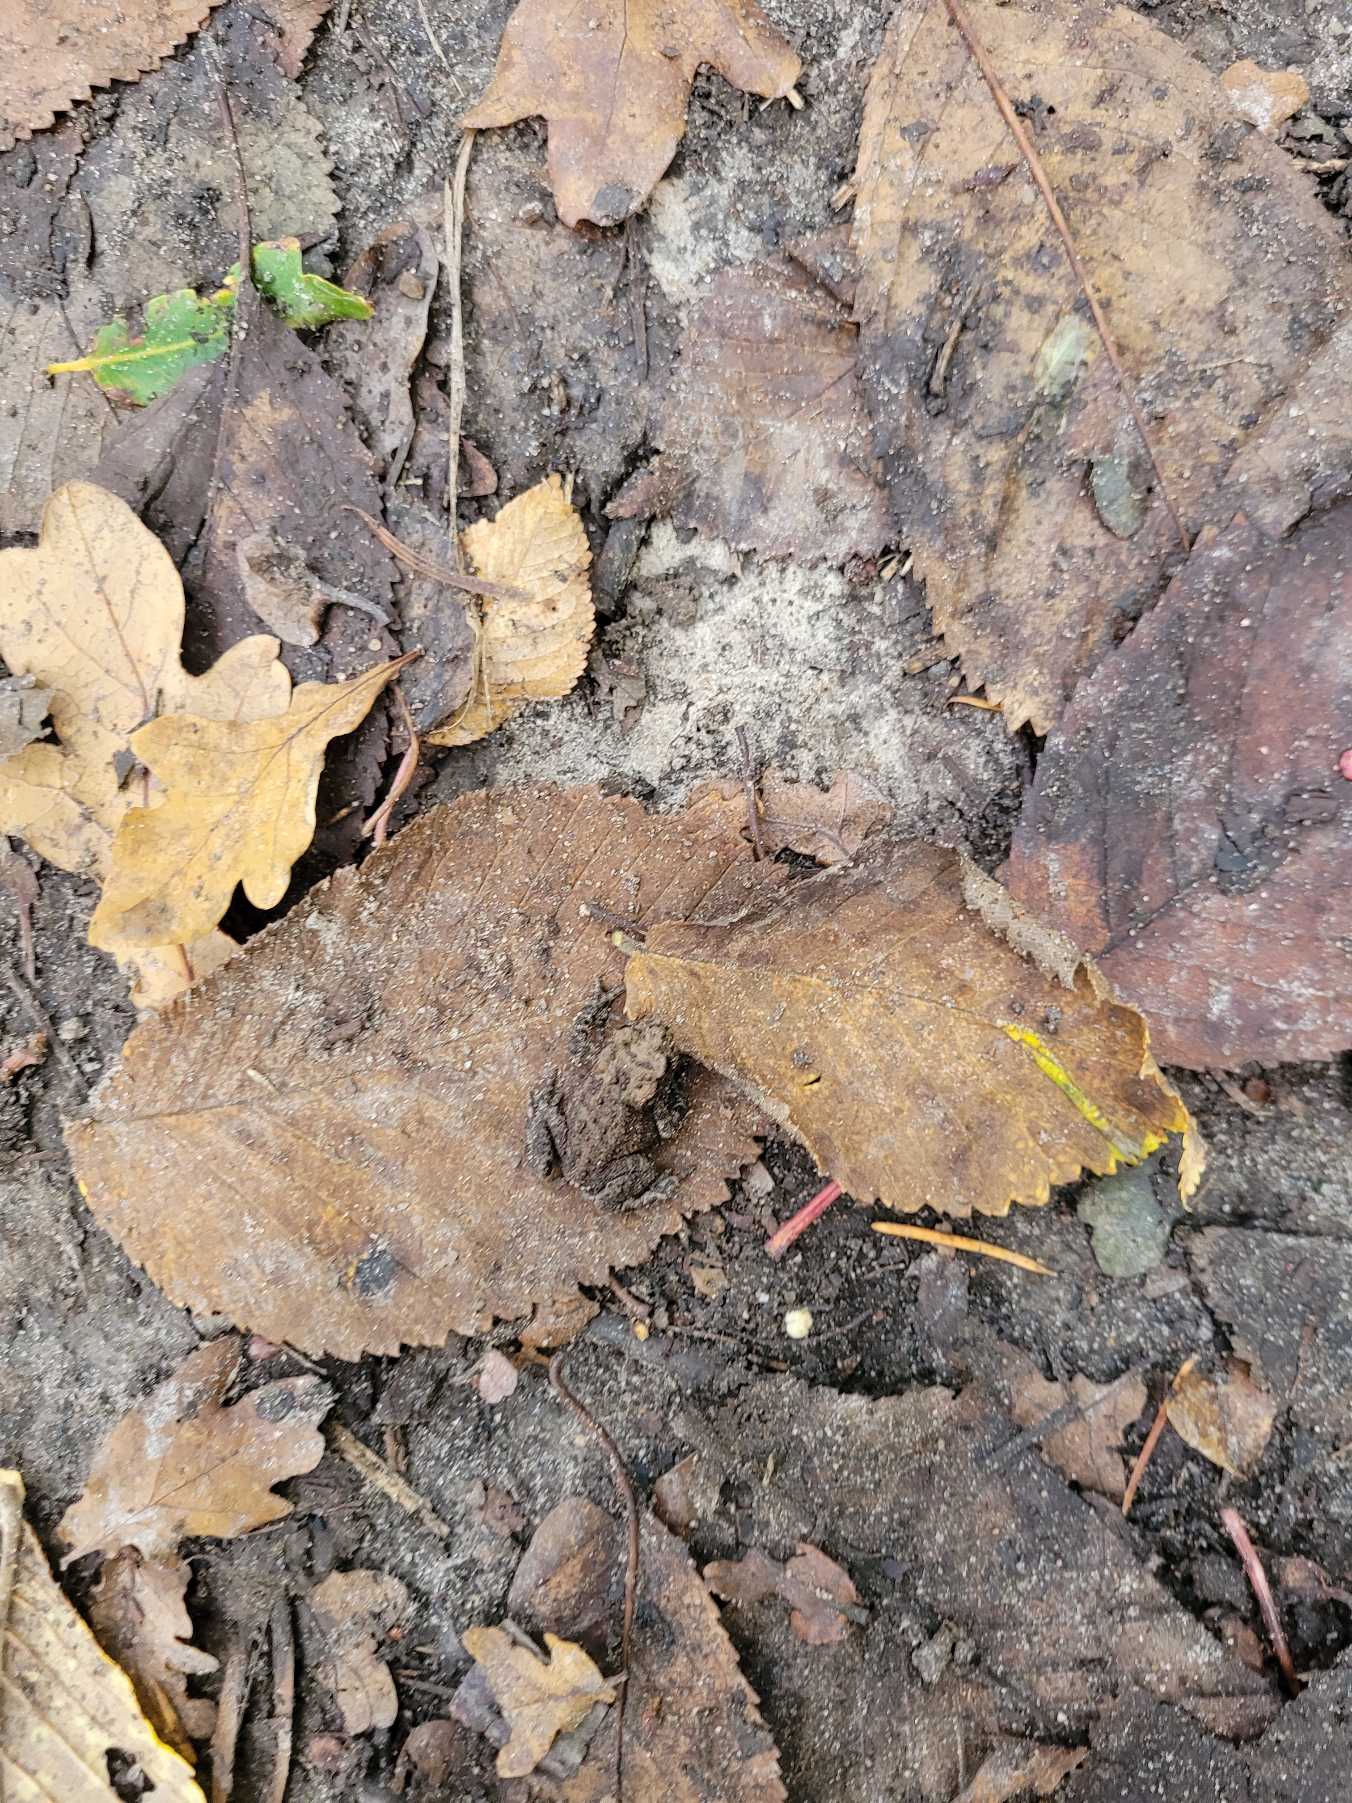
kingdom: Animalia
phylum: Chordata
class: Amphibia
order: Anura
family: Bufonidae
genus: Bufo
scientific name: Bufo bufo
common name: Skrubtudse
